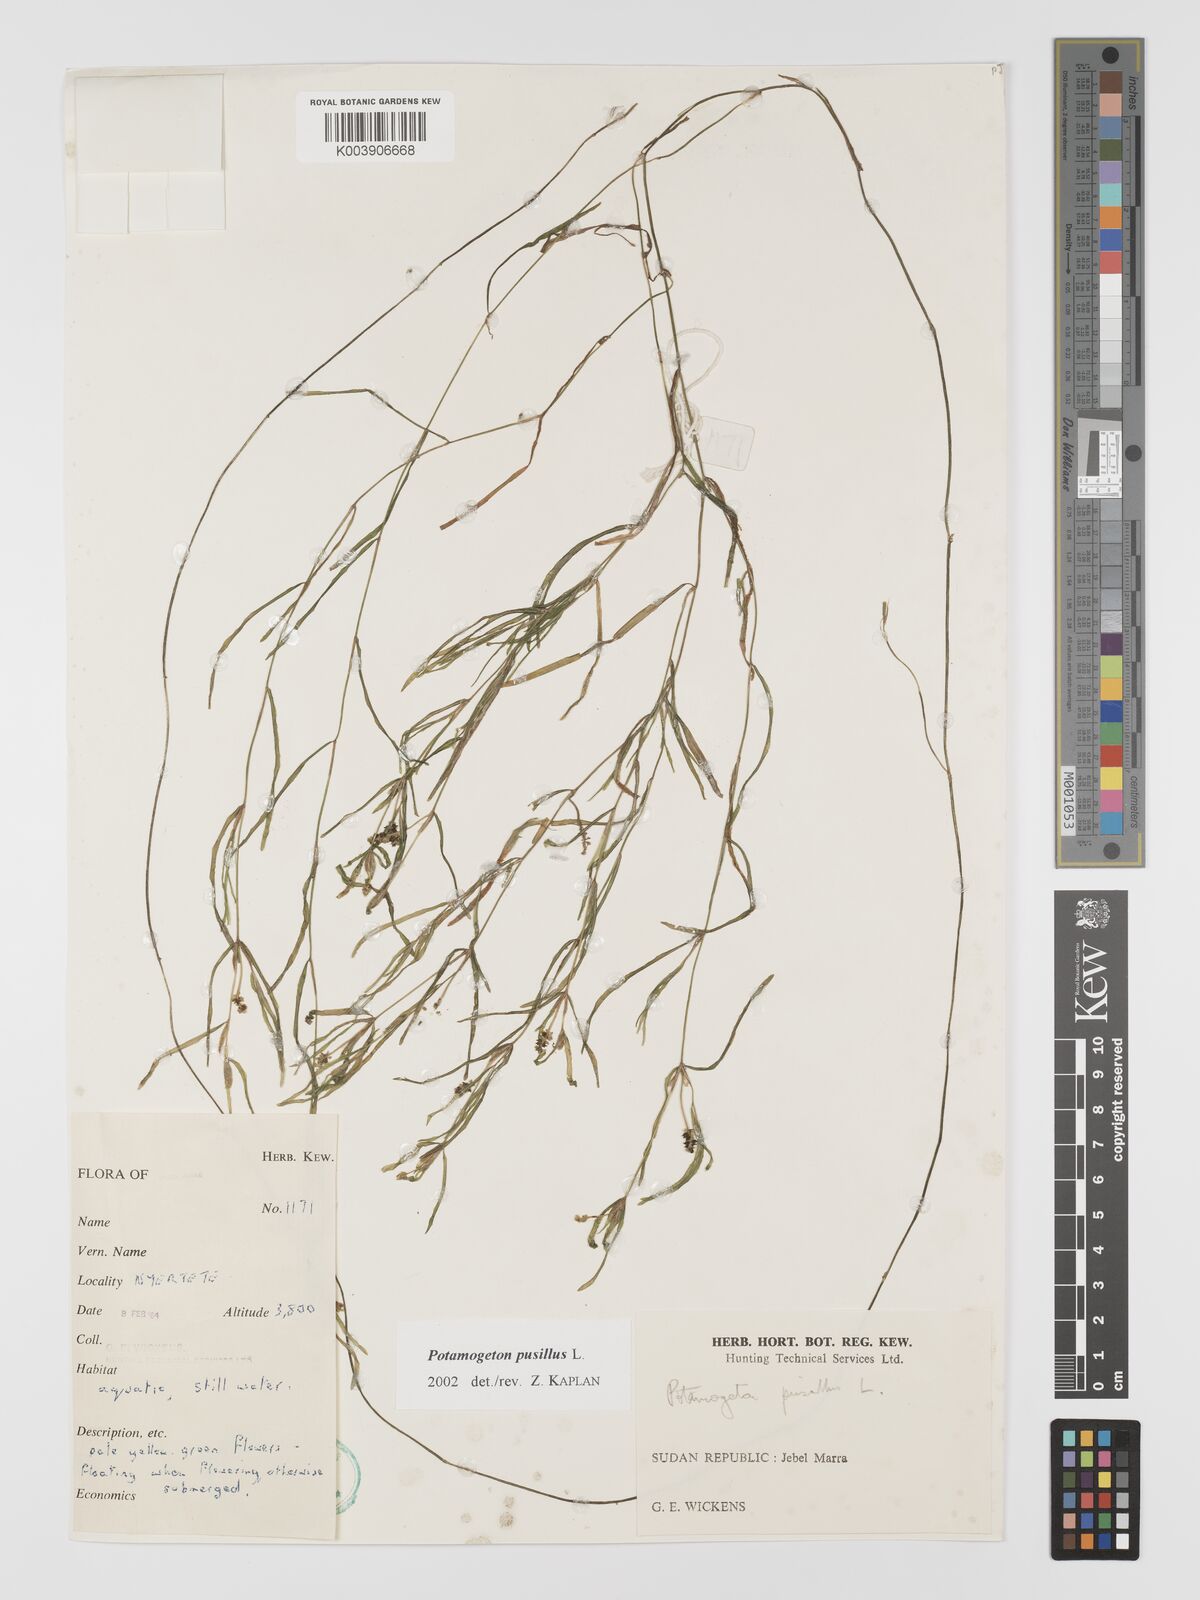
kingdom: Plantae
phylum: Tracheophyta
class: Liliopsida
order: Alismatales
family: Potamogetonaceae
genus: Potamogeton
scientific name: Potamogeton pusillus
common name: Lesser pondweed
